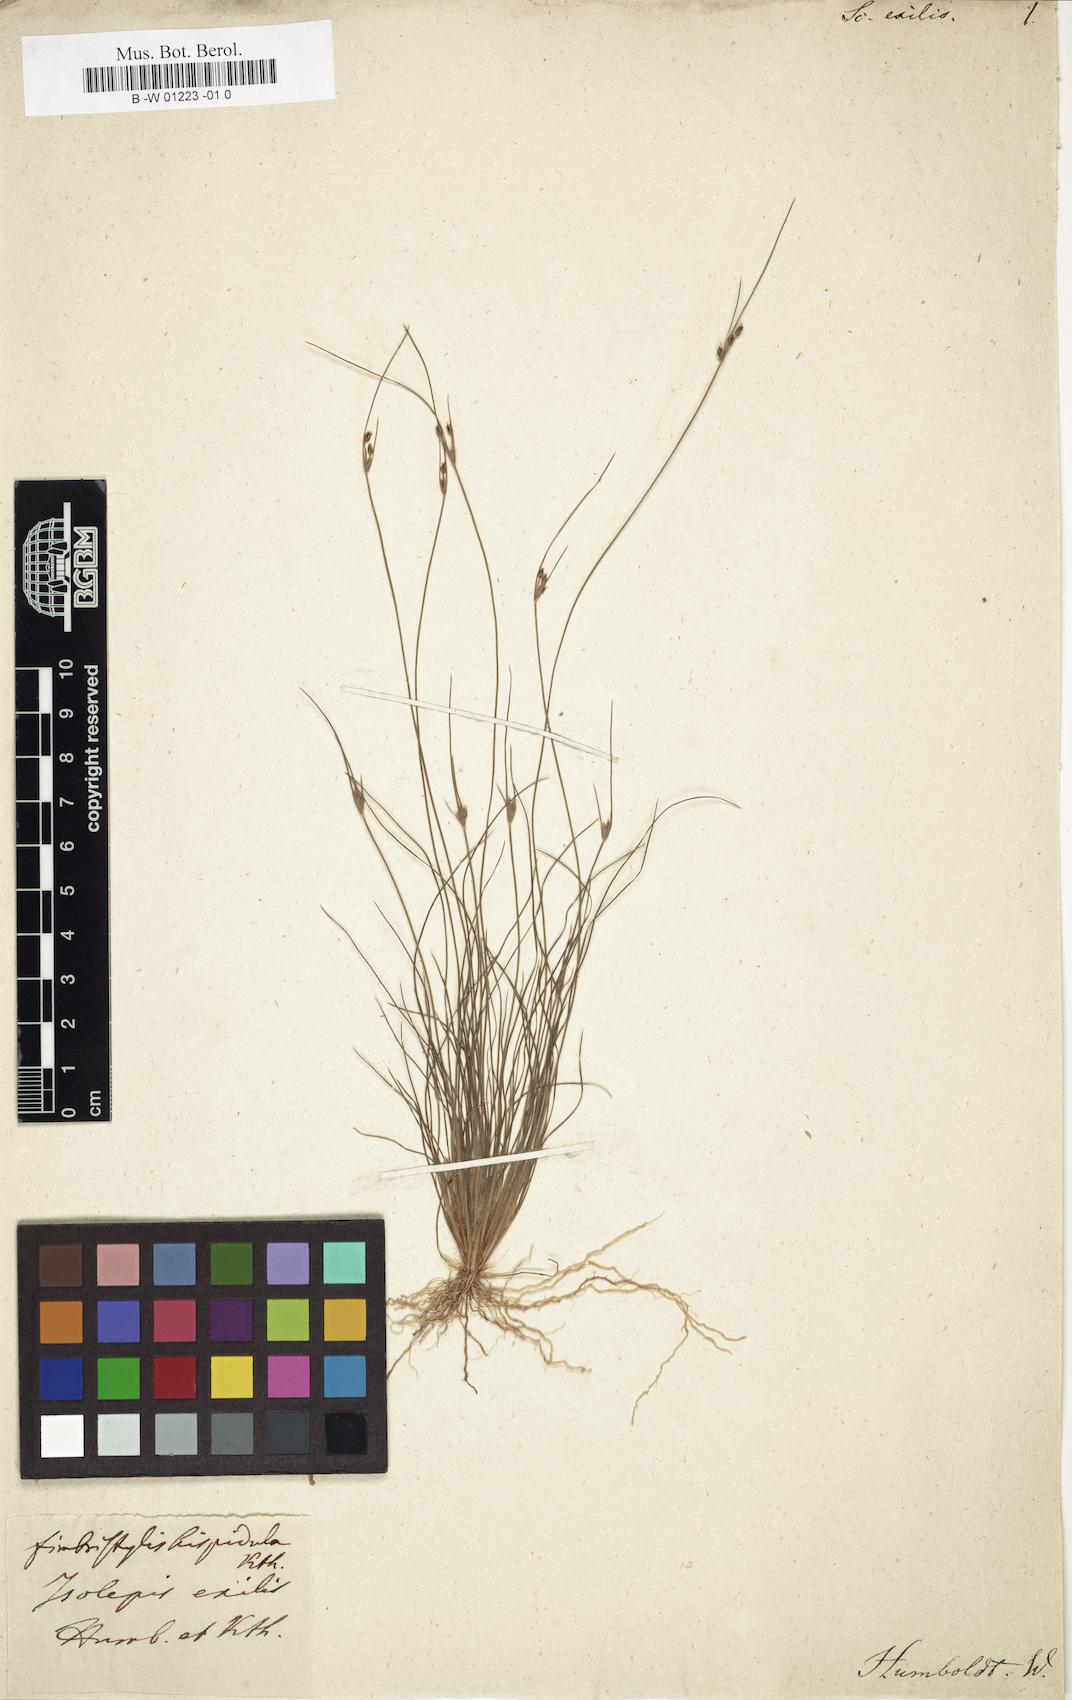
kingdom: Plantae
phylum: Tracheophyta
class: Liliopsida
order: Poales
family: Cyperaceae
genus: Bulbostylis
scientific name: Bulbostylis hispidula
